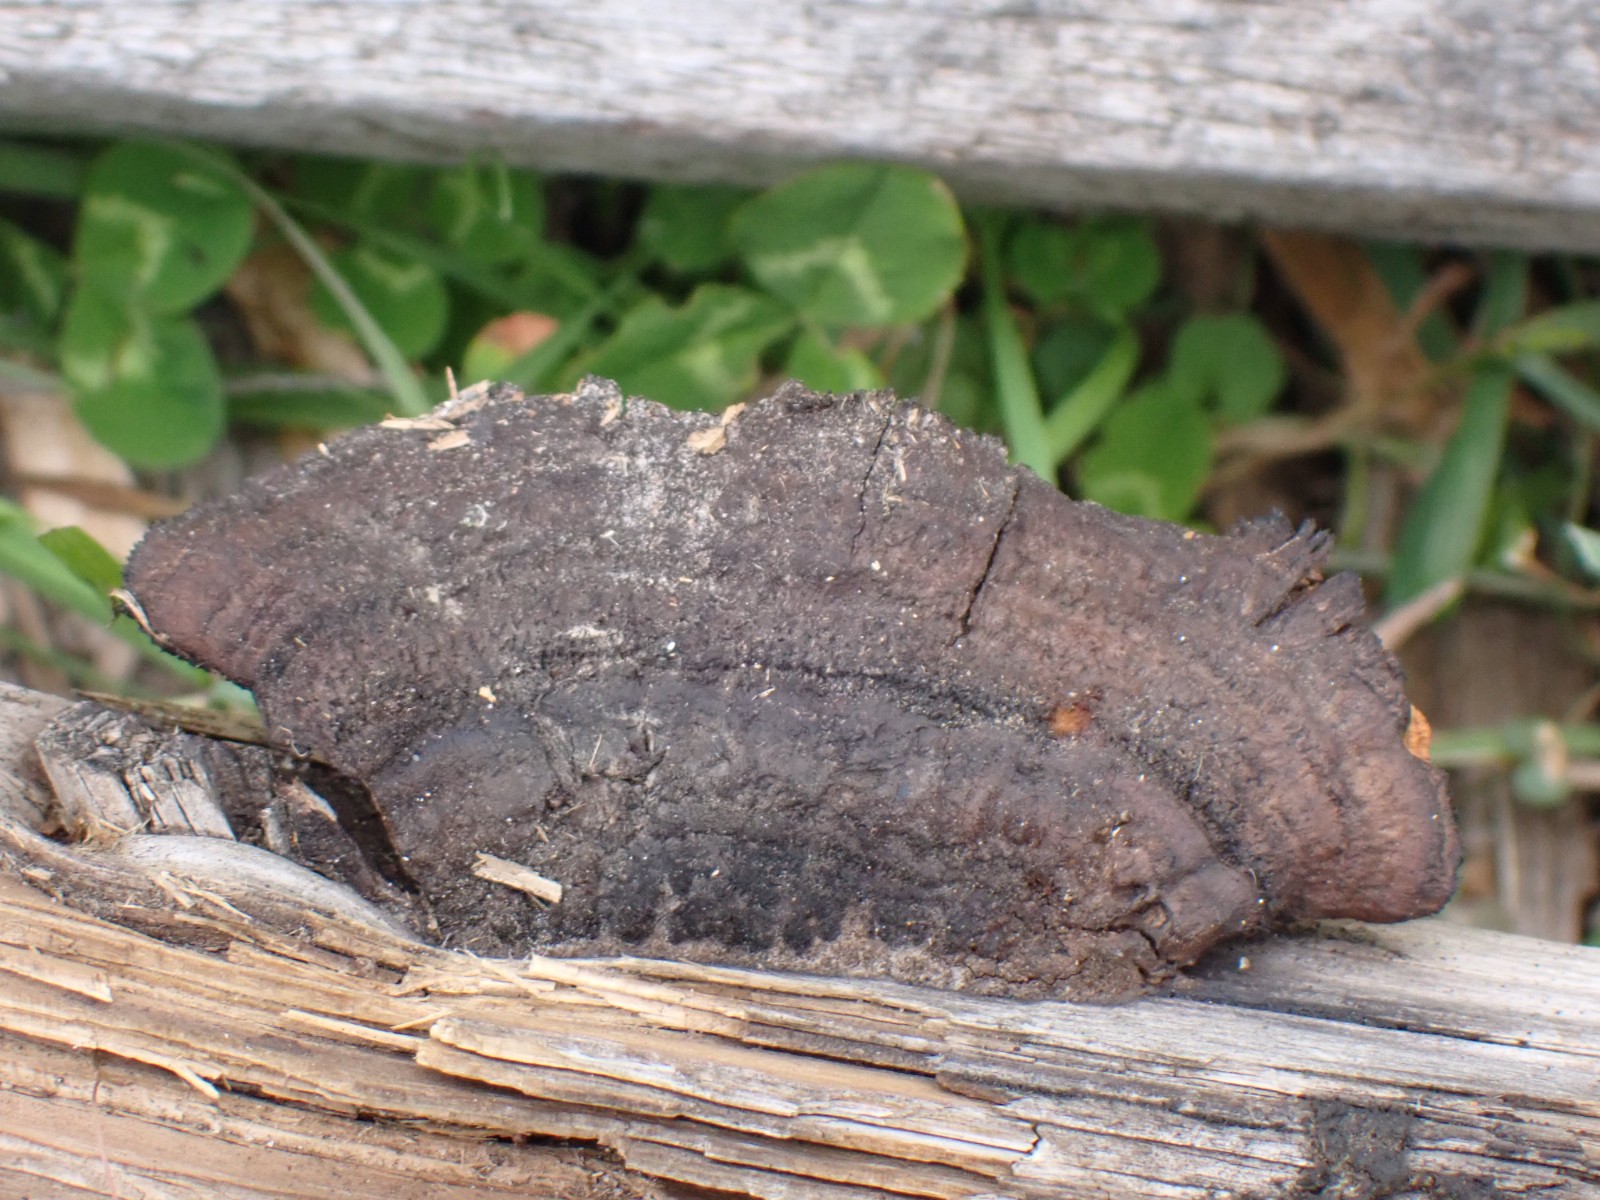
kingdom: Fungi
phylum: Basidiomycota
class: Agaricomycetes
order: Gloeophyllales
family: Gloeophyllaceae
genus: Gloeophyllum
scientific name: Gloeophyllum sepiarium
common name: fyrre-korkhat
